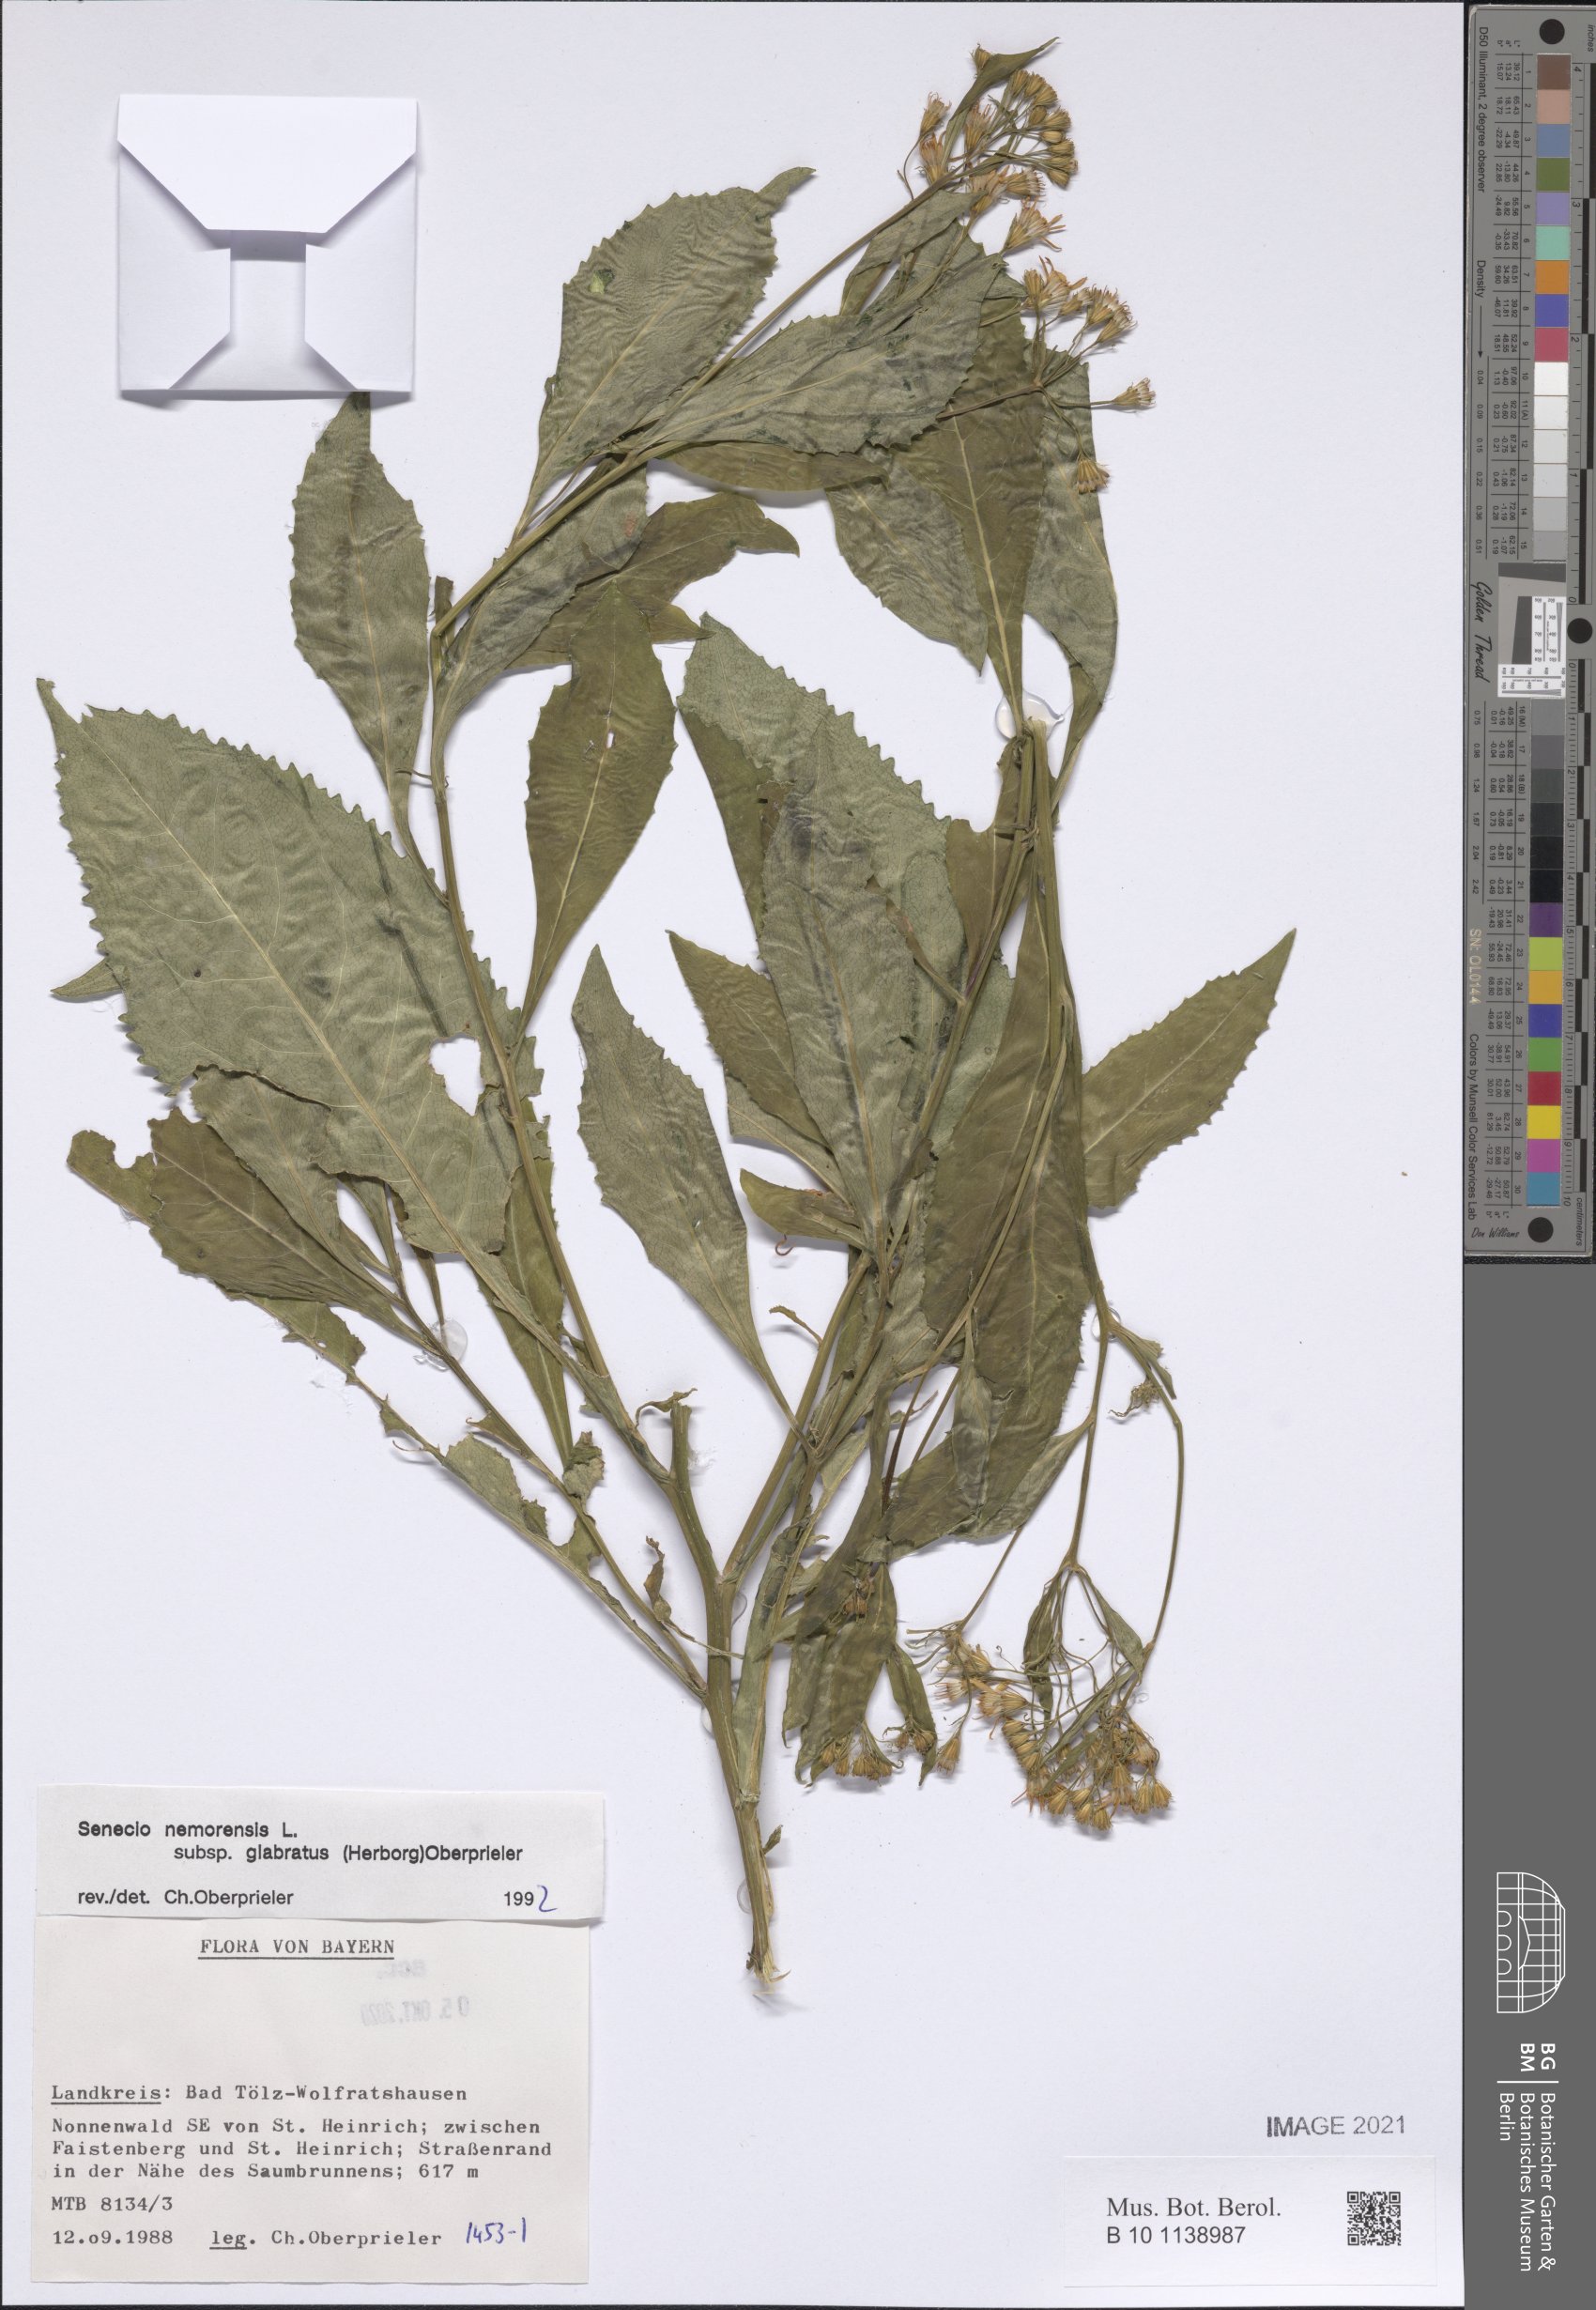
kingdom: Plantae
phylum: Tracheophyta
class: Magnoliopsida
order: Asterales
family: Asteraceae
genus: Senecio
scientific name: Senecio germanicus
